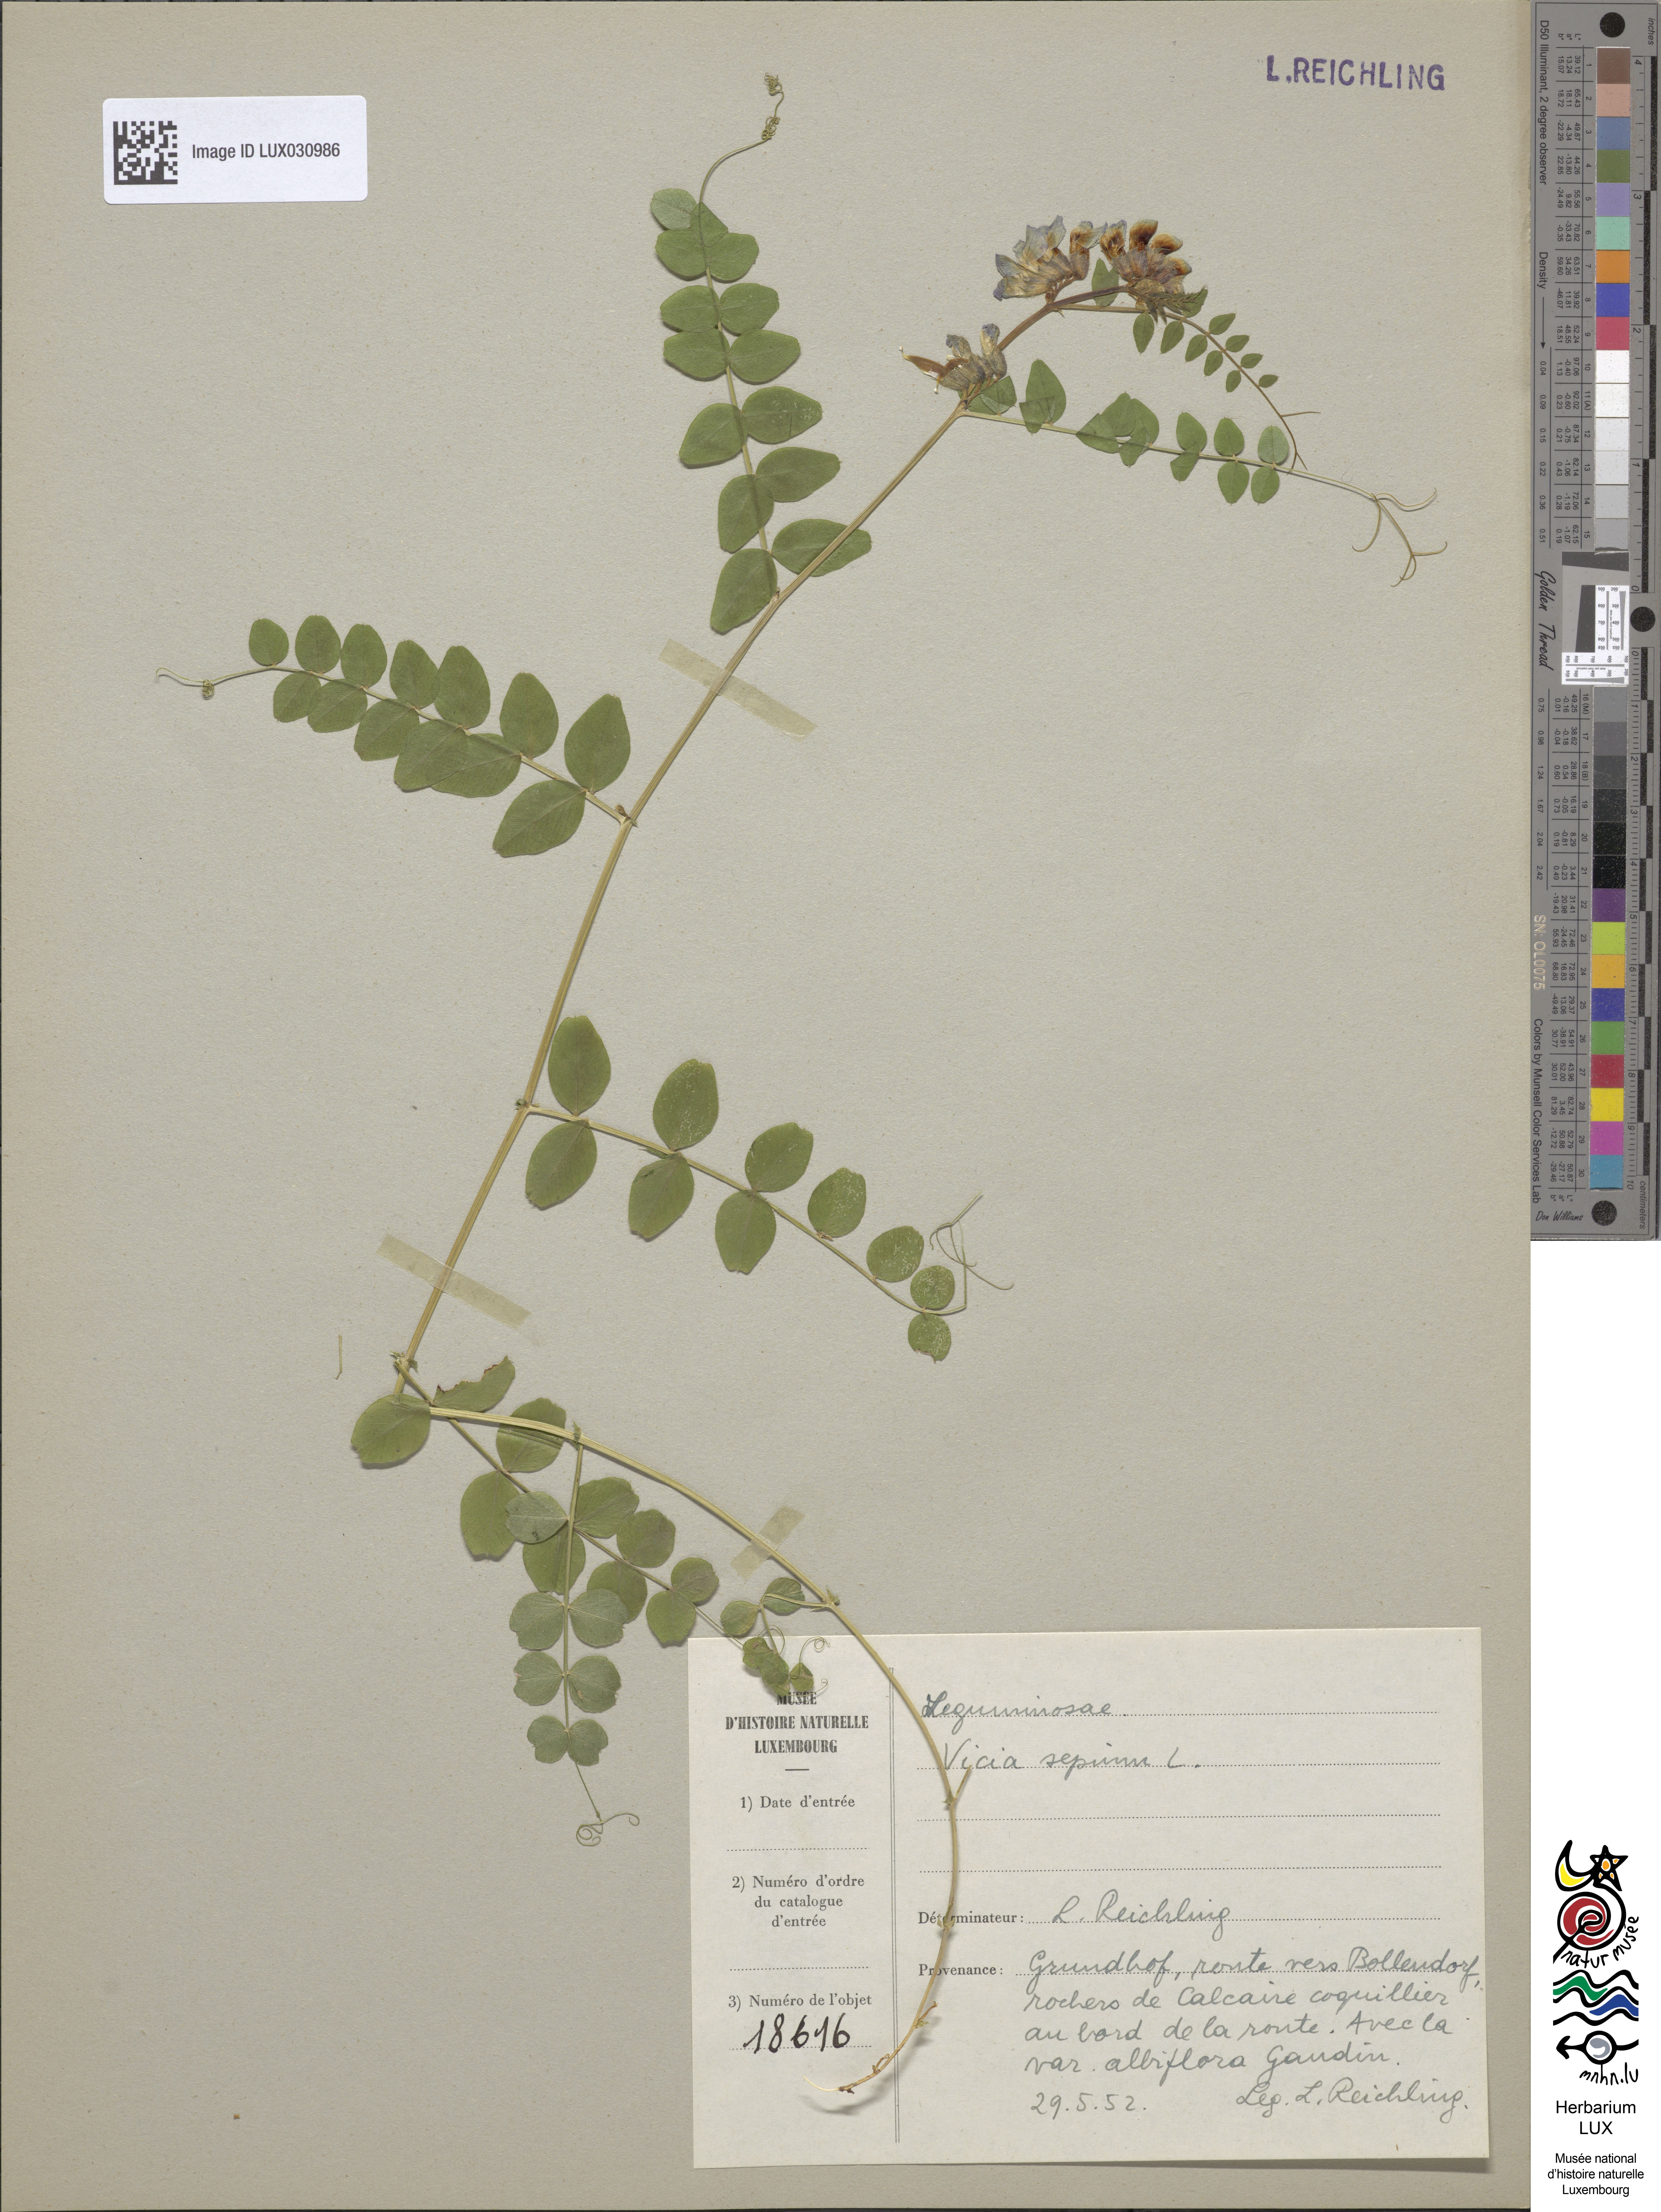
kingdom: Plantae
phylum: Tracheophyta
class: Magnoliopsida
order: Fabales
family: Fabaceae
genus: Vicia
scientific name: Vicia sepium
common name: Bush vetch
